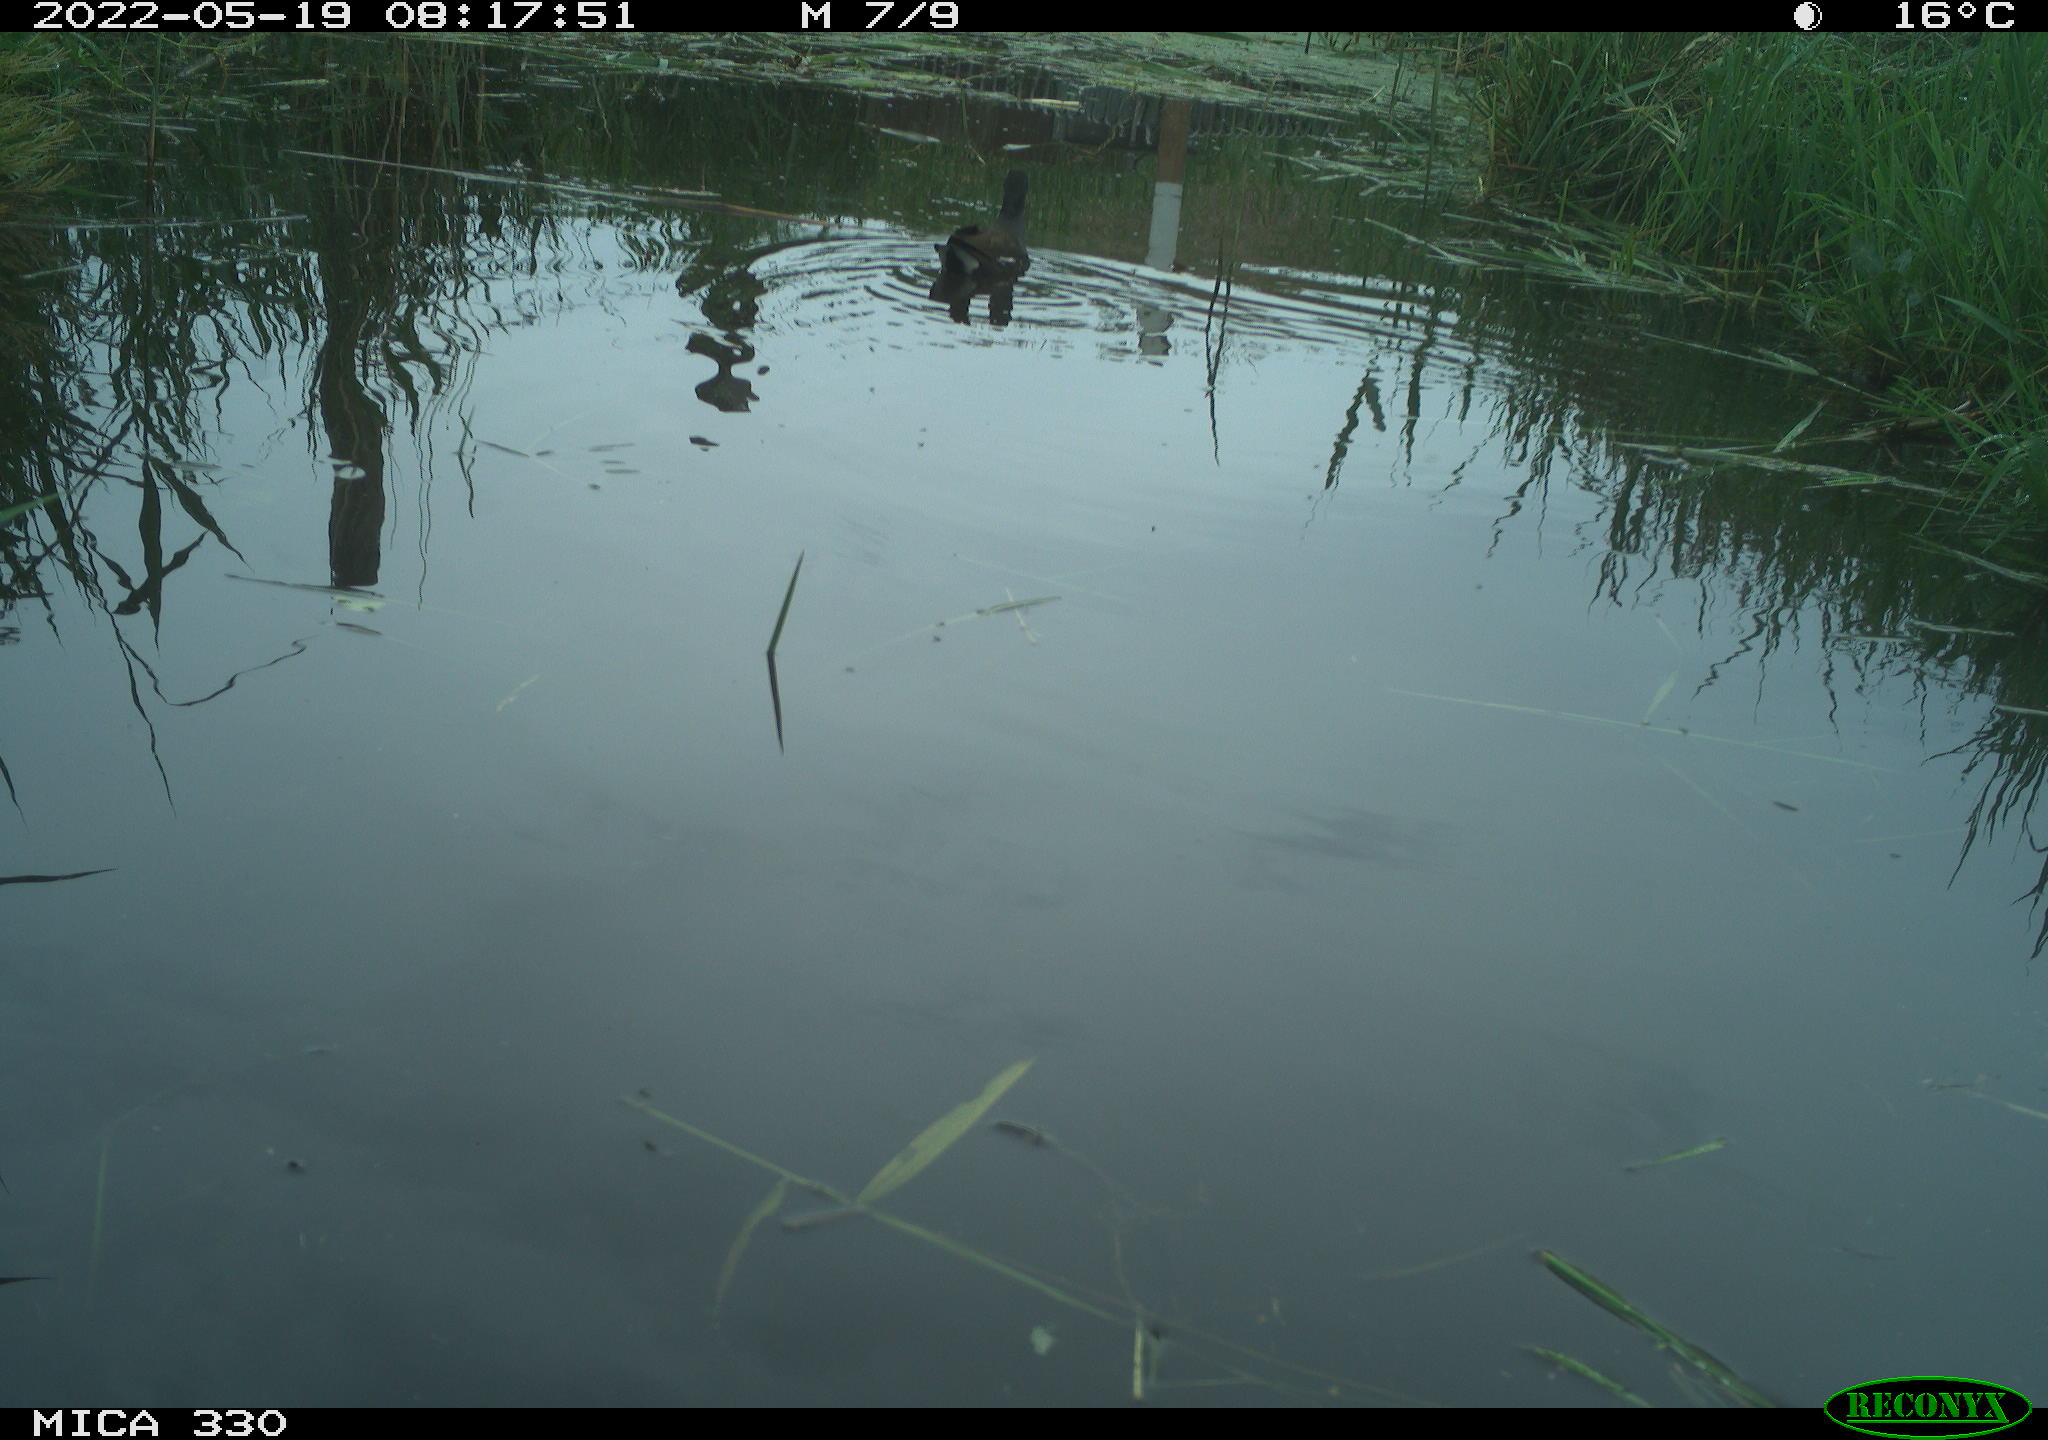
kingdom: Animalia
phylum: Chordata
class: Aves
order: Gruiformes
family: Rallidae
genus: Gallinula
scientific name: Gallinula chloropus
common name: Common moorhen
